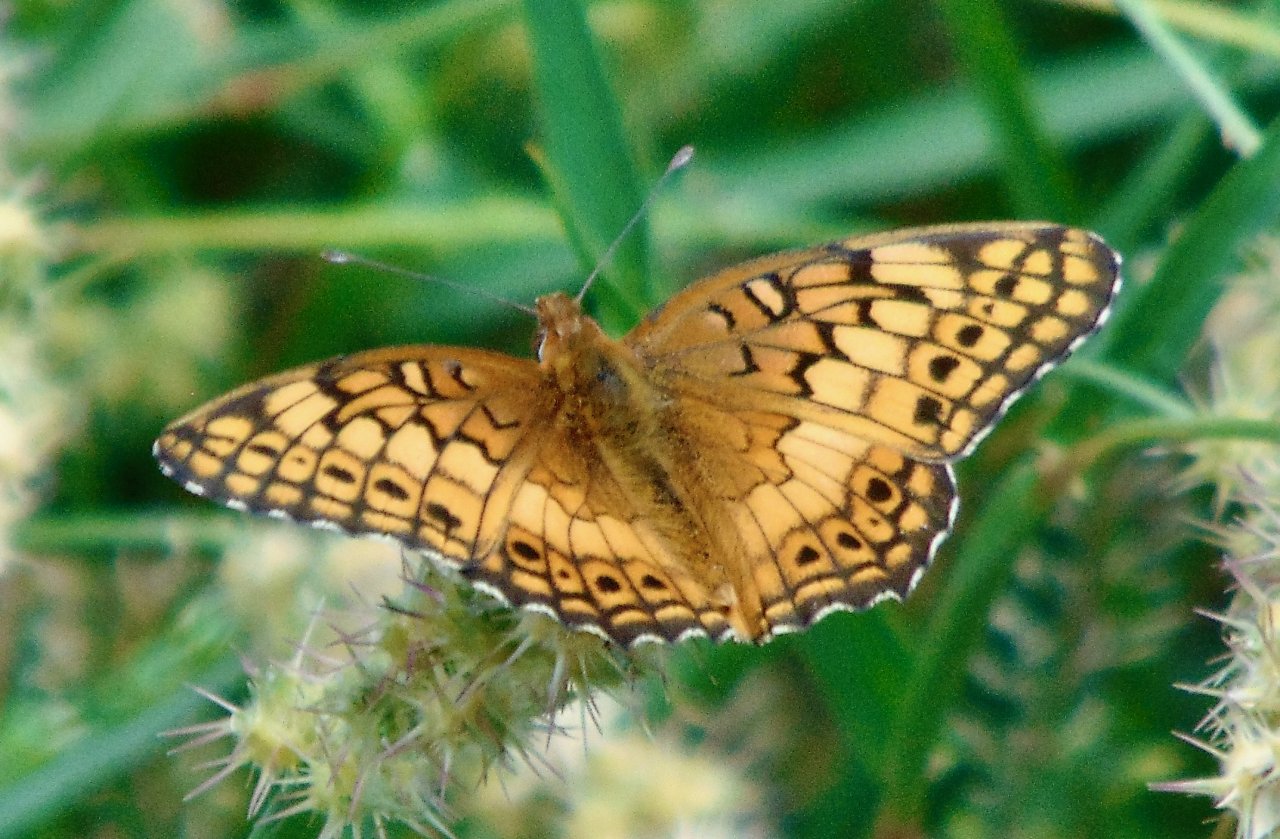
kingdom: Animalia
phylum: Arthropoda
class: Insecta
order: Lepidoptera
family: Nymphalidae
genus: Euptoieta
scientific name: Euptoieta claudia
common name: Variegated Fritillary
